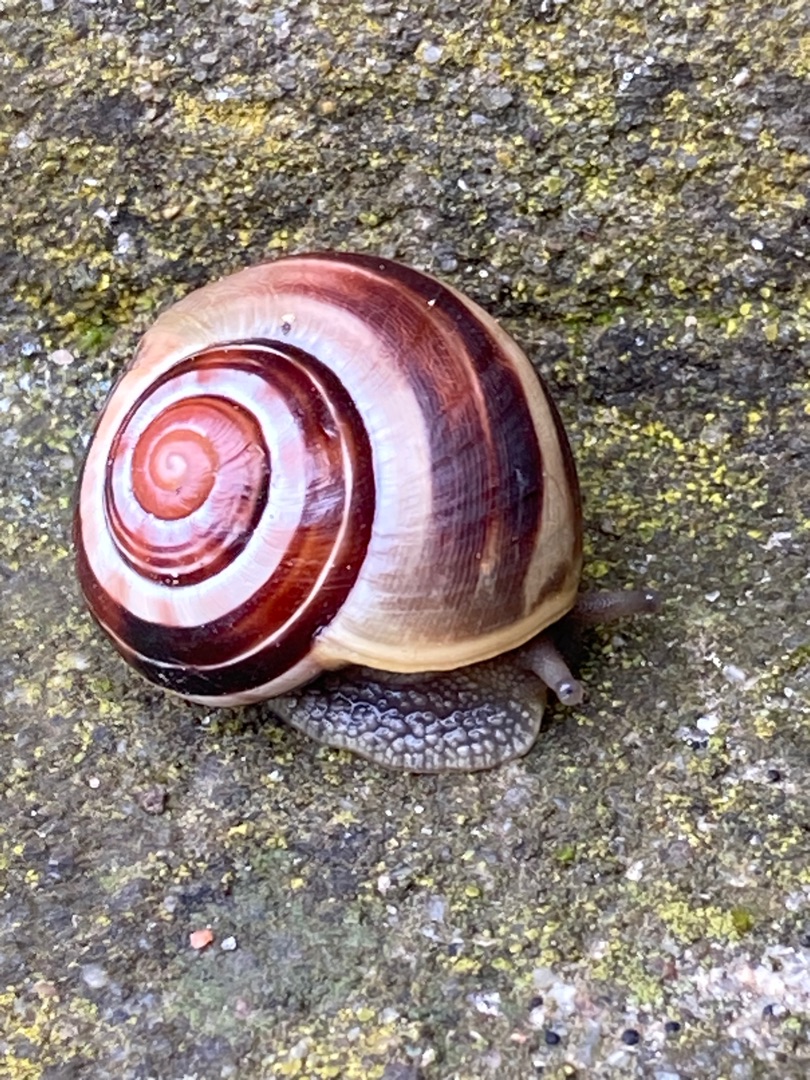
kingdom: Animalia
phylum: Mollusca
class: Gastropoda
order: Stylommatophora
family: Helicidae
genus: Cepaea
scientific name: Cepaea hortensis
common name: Havesnegl
